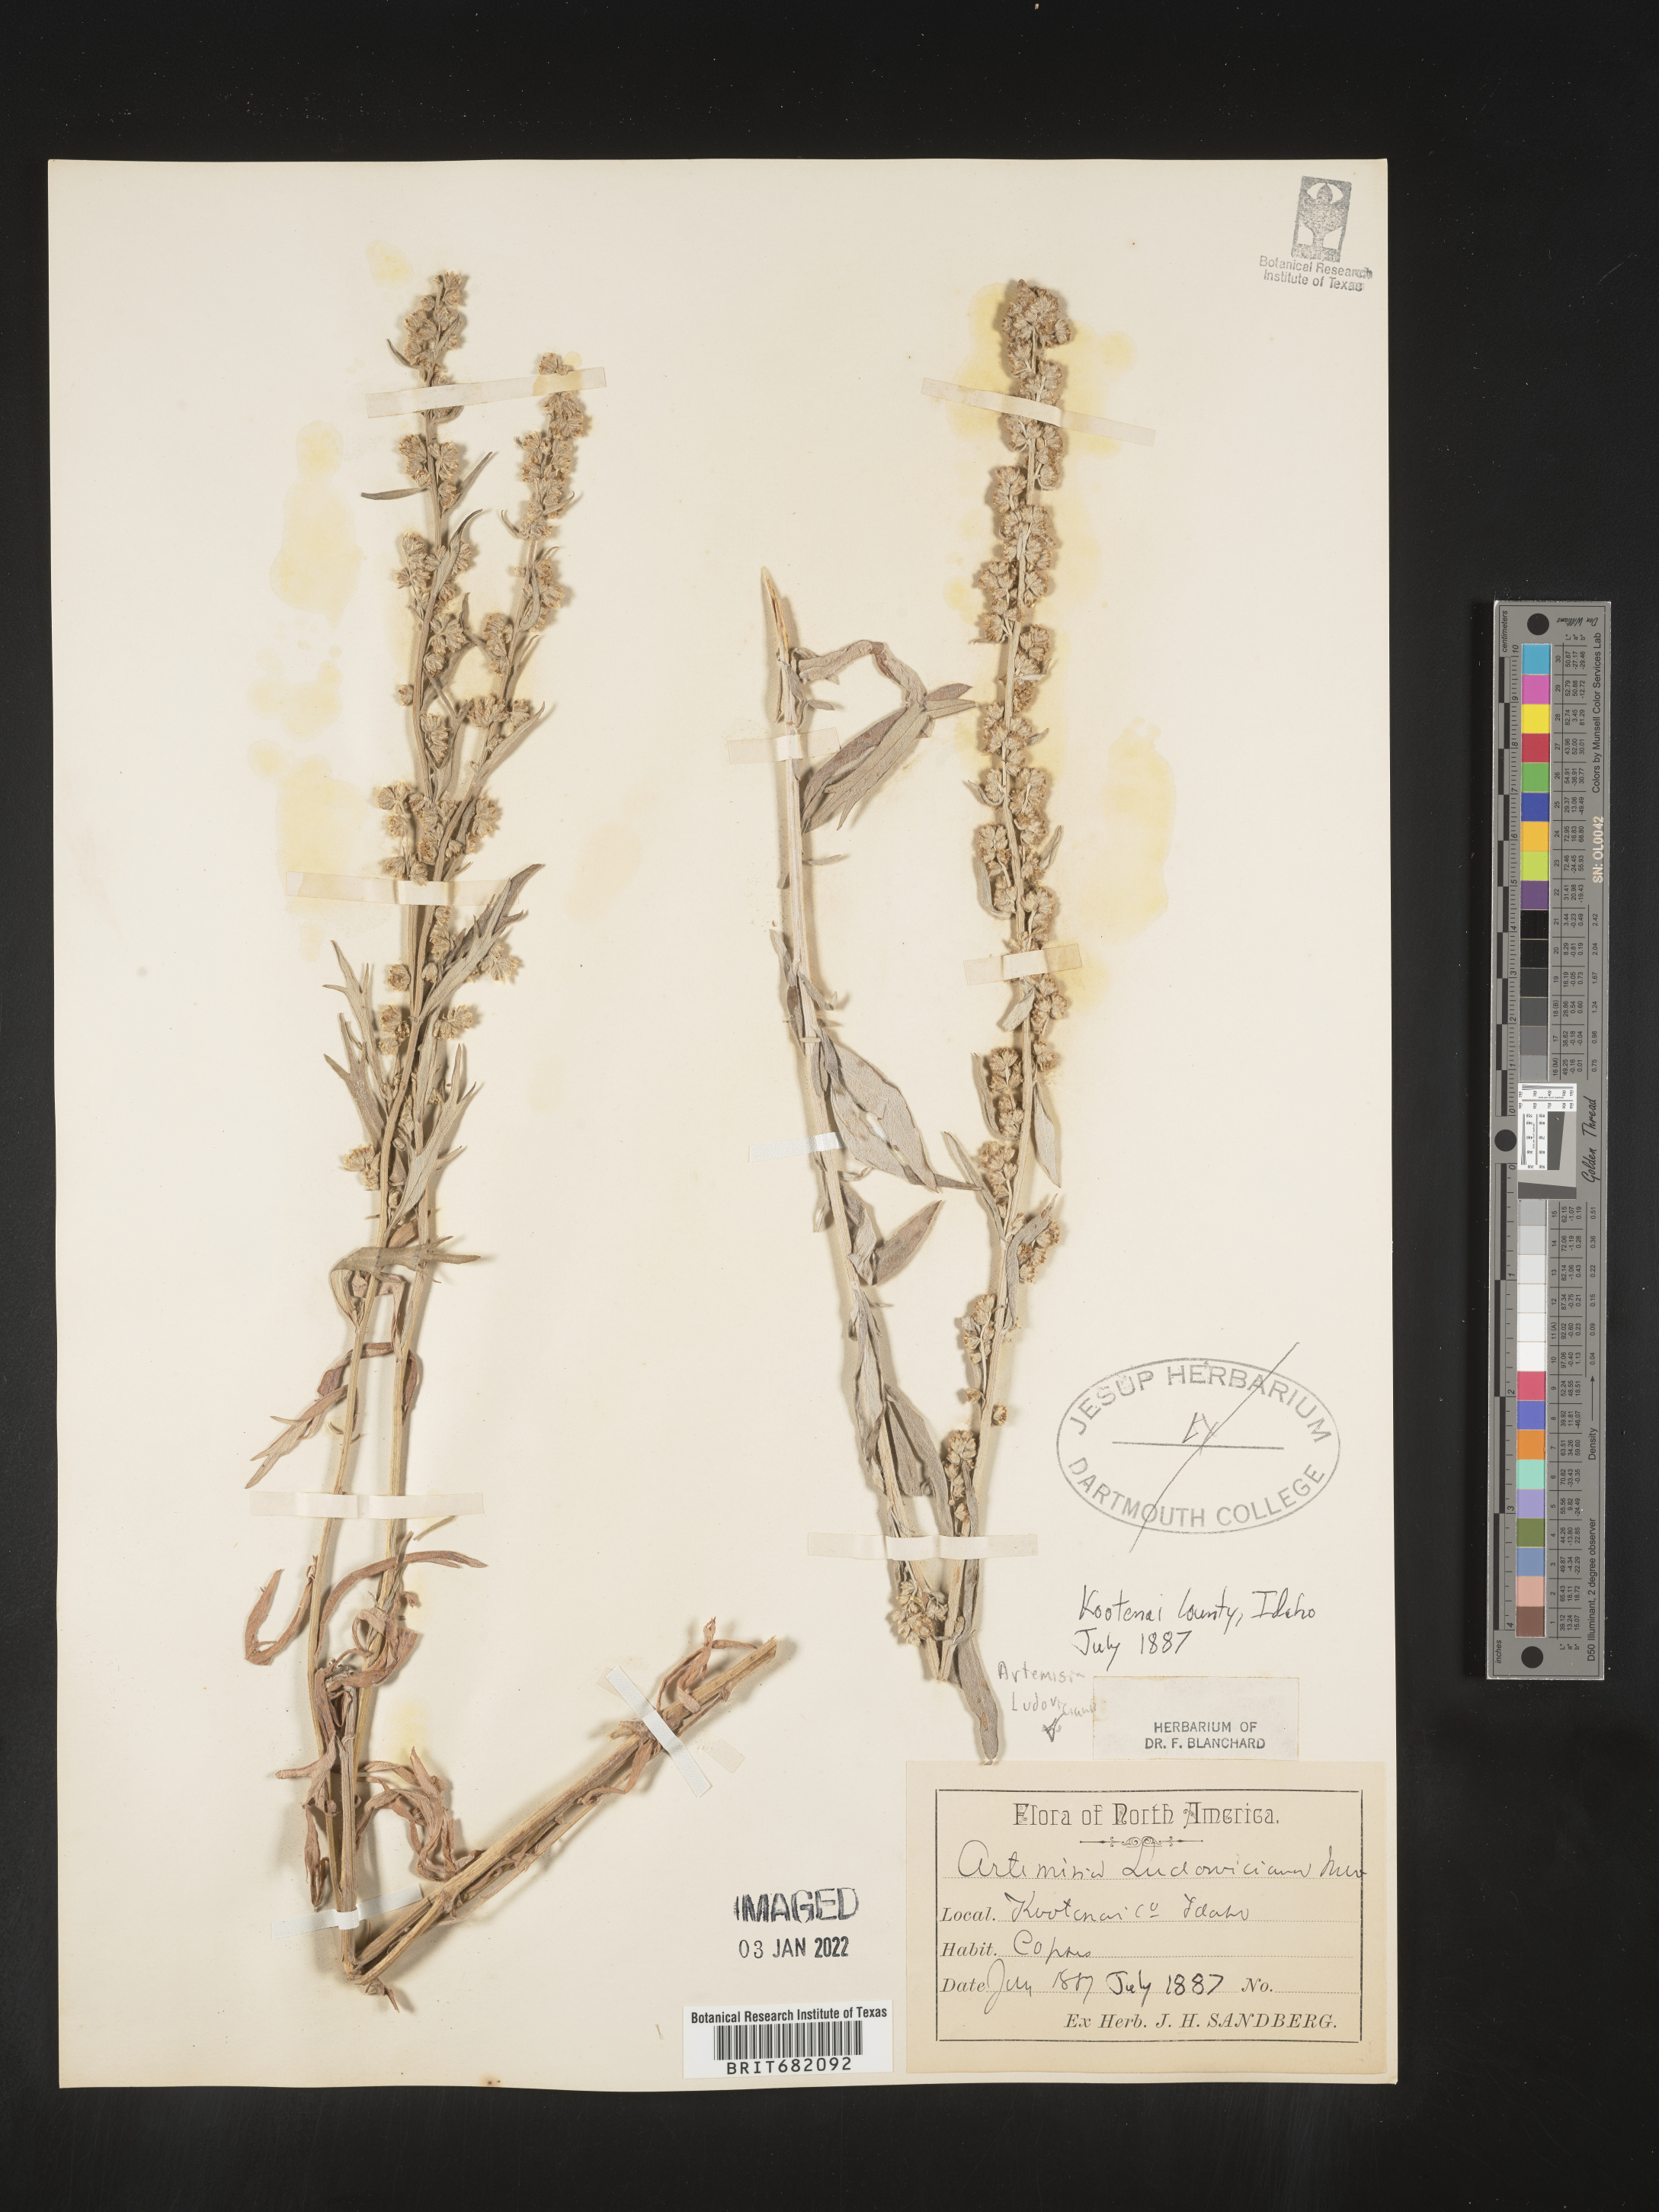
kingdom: Plantae
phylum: Tracheophyta
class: Magnoliopsida
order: Asterales
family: Asteraceae
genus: Artemisia
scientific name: Artemisia ludoviciana
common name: Western mugwort
